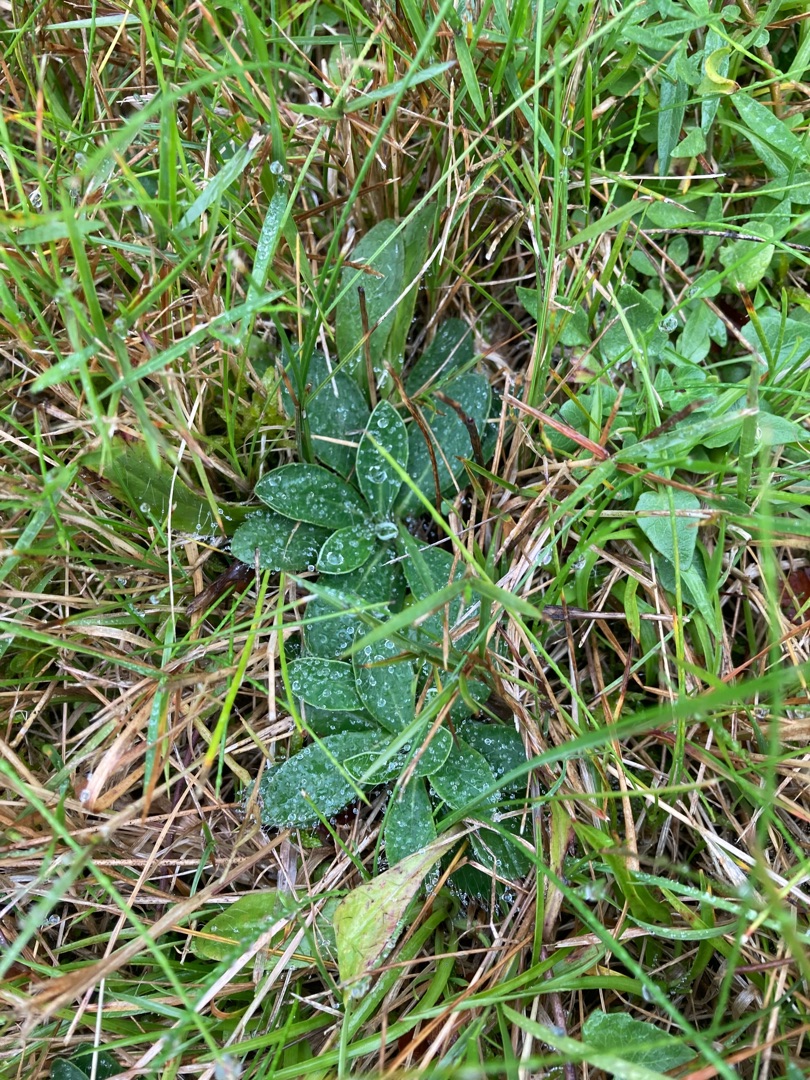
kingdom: Plantae
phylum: Tracheophyta
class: Magnoliopsida
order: Asterales
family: Asteraceae
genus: Pilosella
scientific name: Pilosella officinarum
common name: Håret høgeurt
